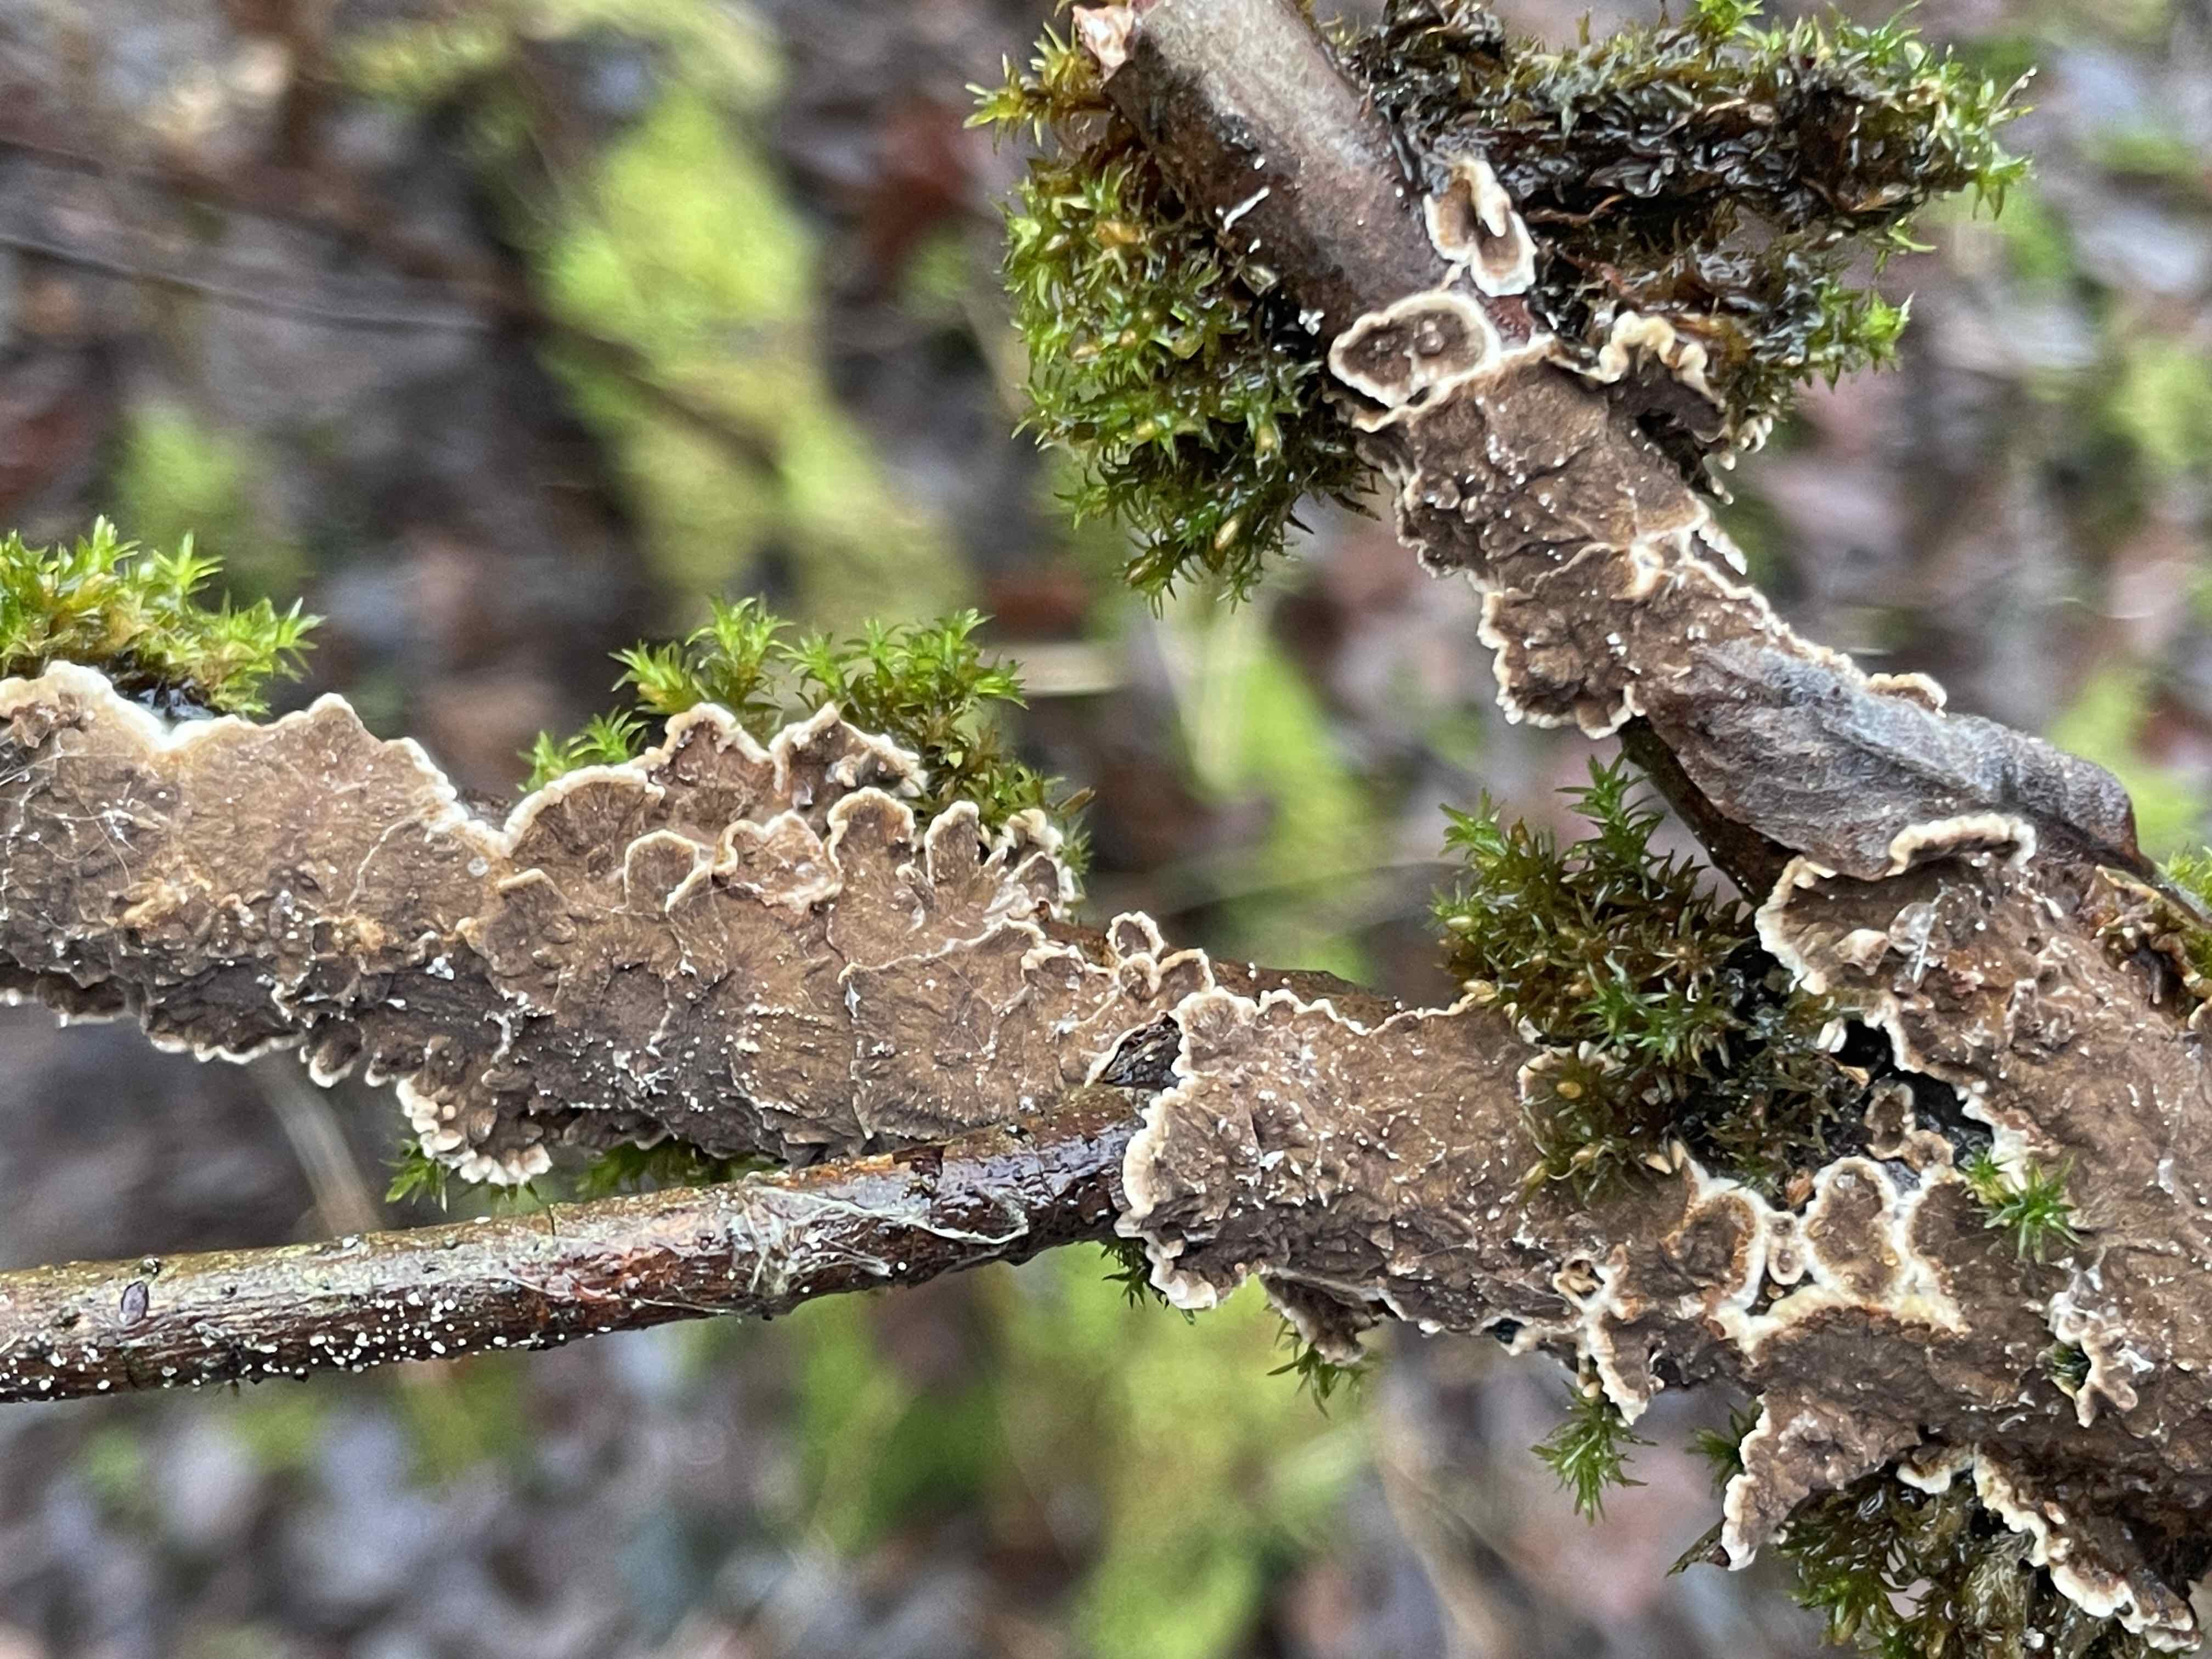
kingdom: Fungi
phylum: Basidiomycota
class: Agaricomycetes
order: Hymenochaetales
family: Hymenochaetaceae
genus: Hydnoporia
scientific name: Hydnoporia tabacina
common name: tobaksbrun ruslædersvamp
